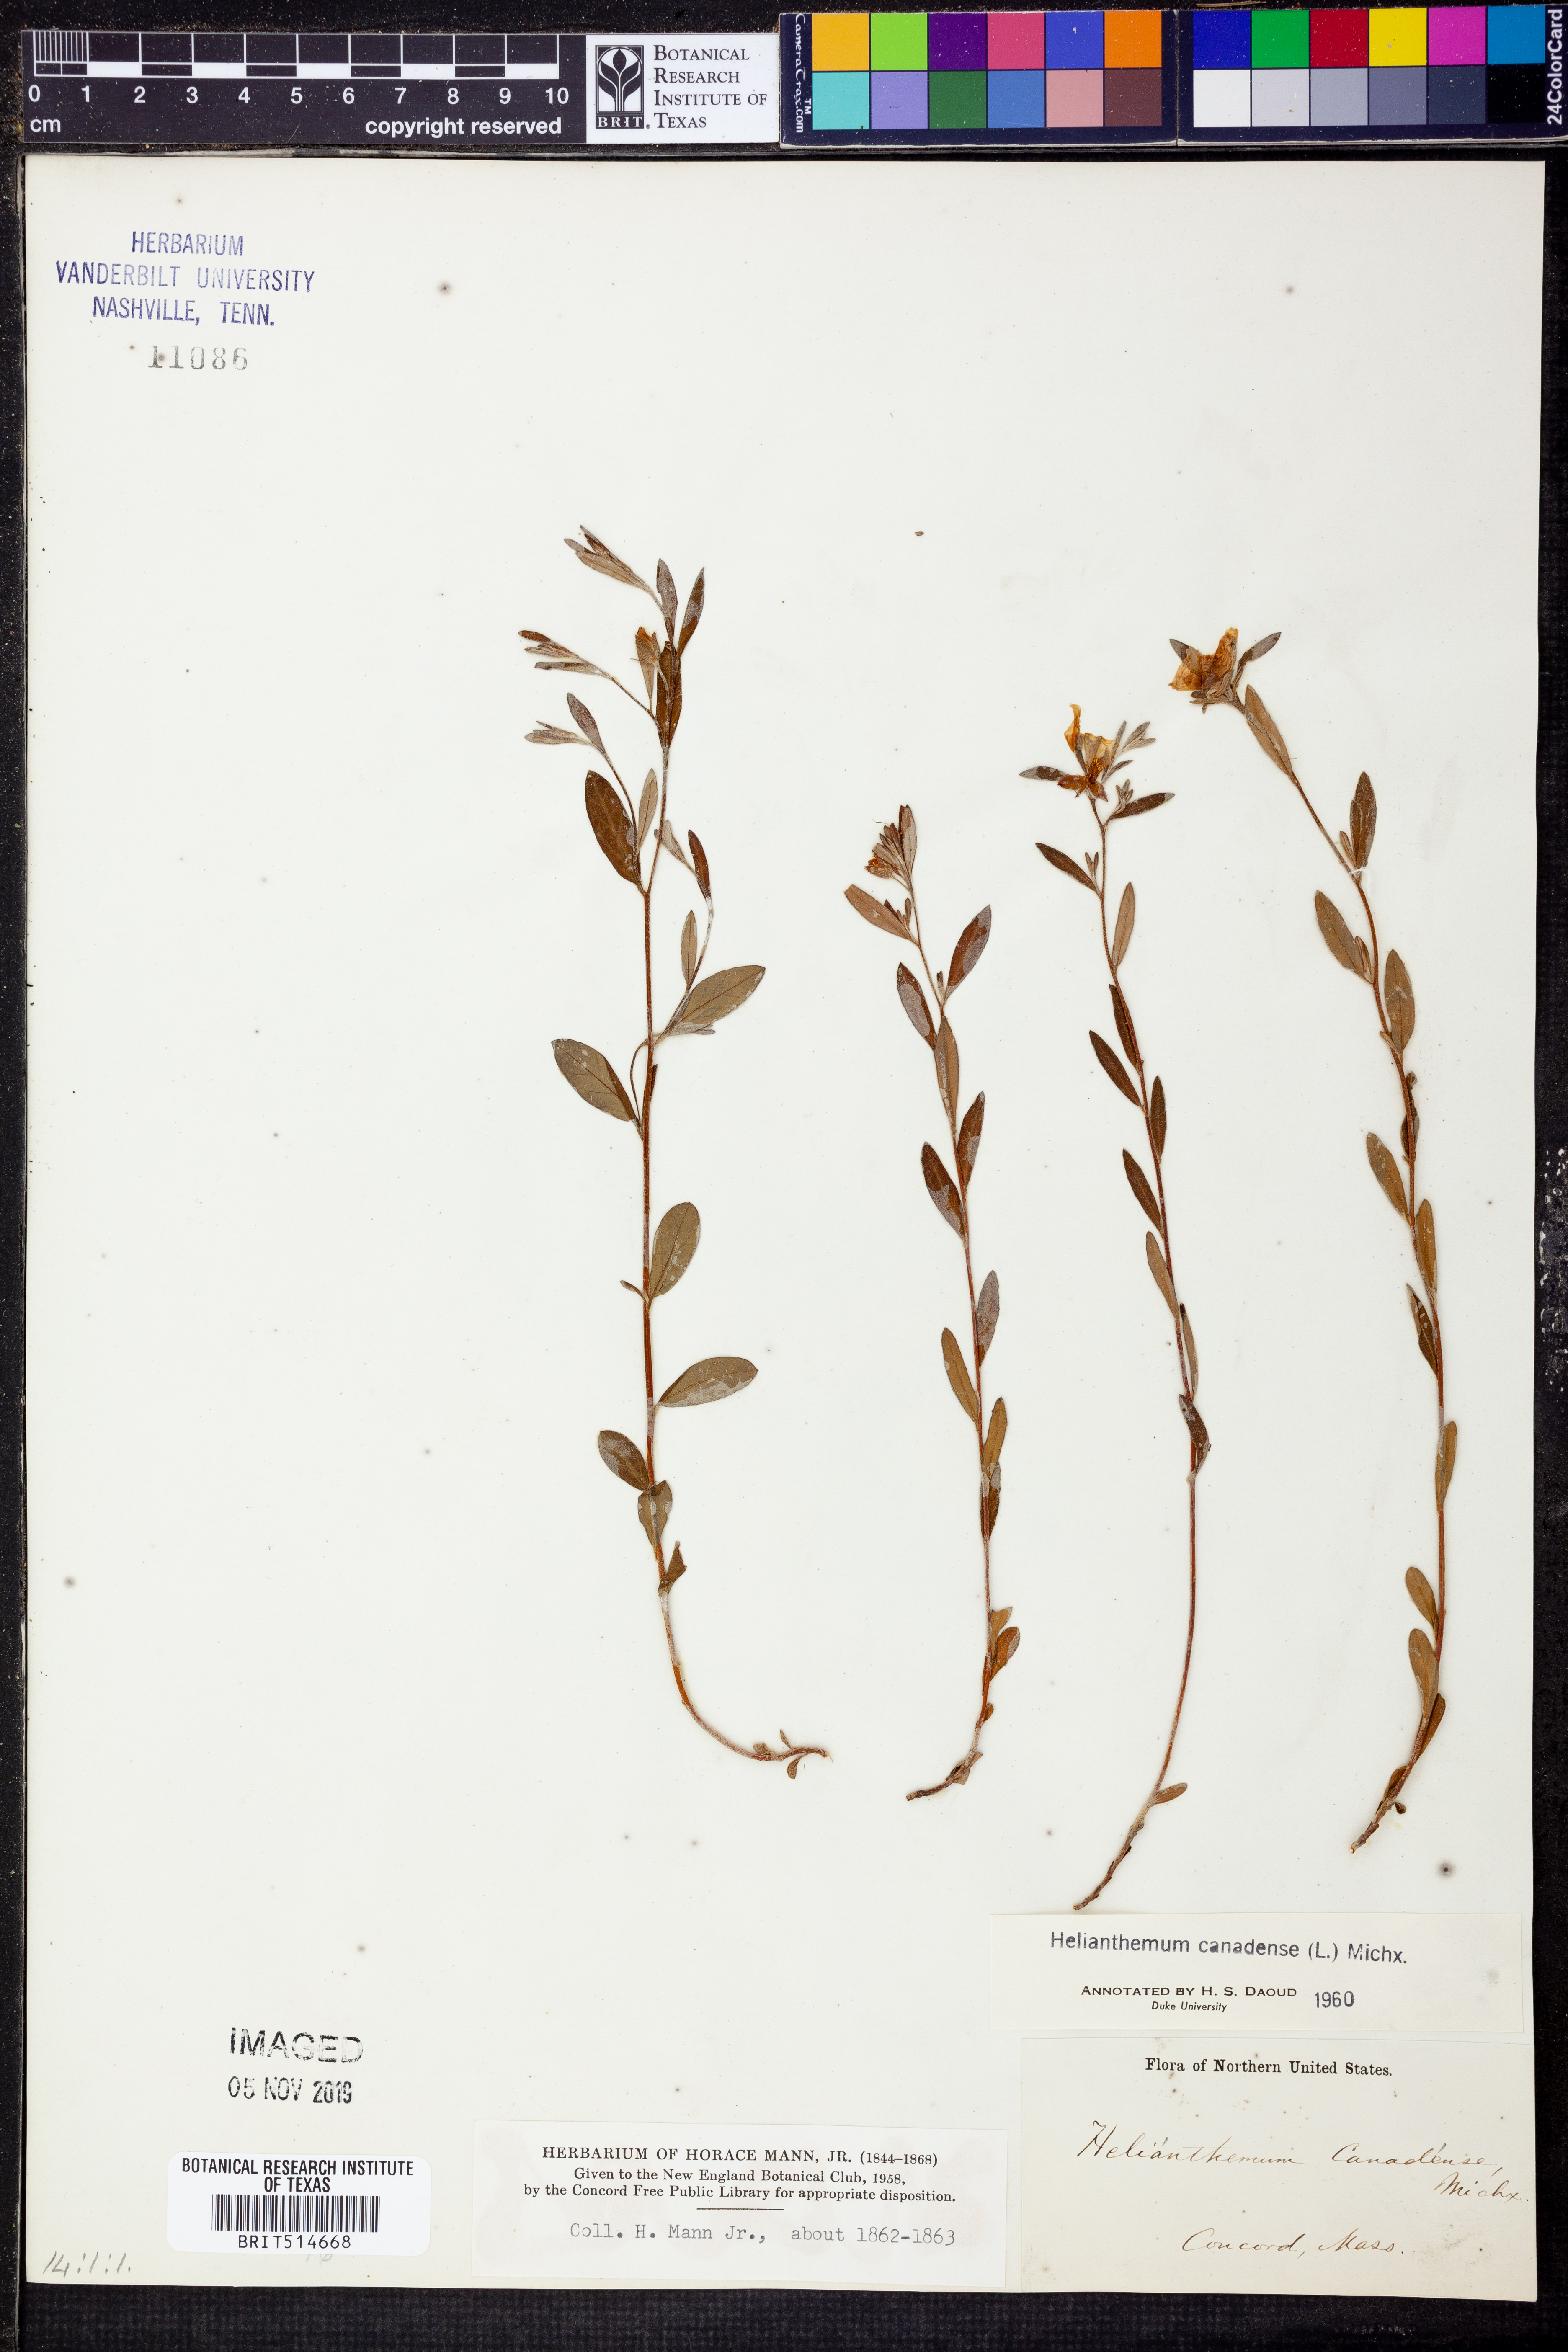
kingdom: Plantae
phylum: Tracheophyta
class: Magnoliopsida
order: Malvales
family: Cistaceae
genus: Crocanthemum
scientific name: Crocanthemum canadense
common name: Canada frostweed
